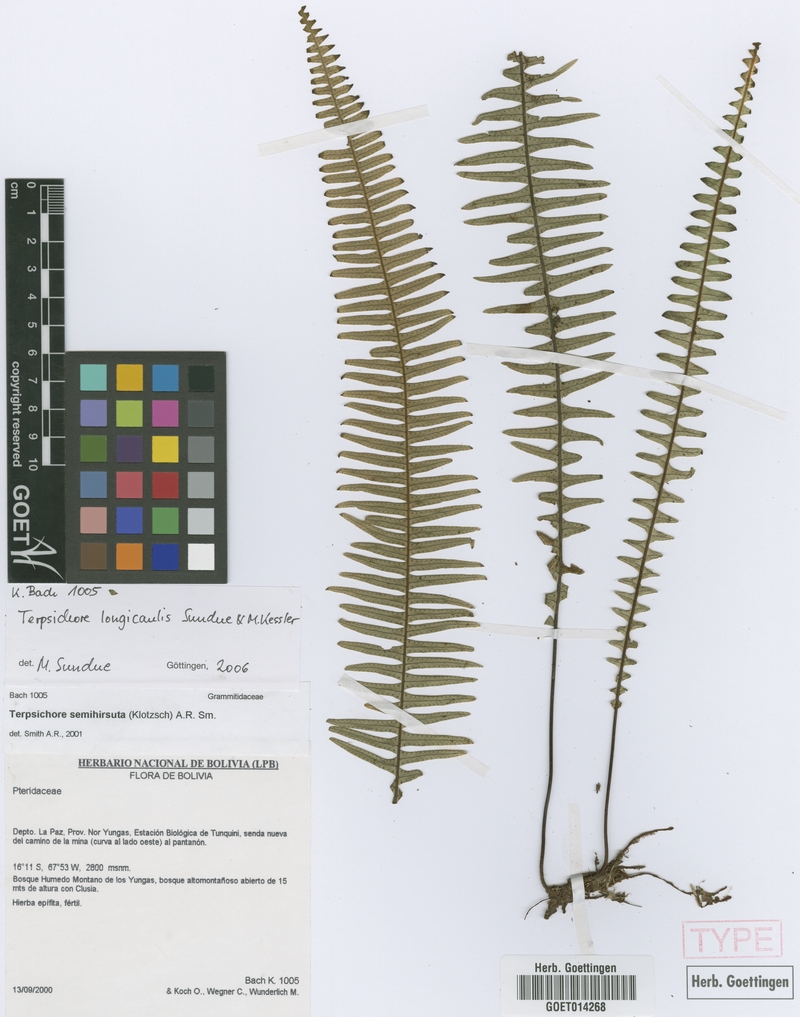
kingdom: Plantae
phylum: Tracheophyta
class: Polypodiopsida
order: Polypodiales
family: Polypodiaceae
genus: Mycopteris
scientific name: Mycopteris longicaulis
